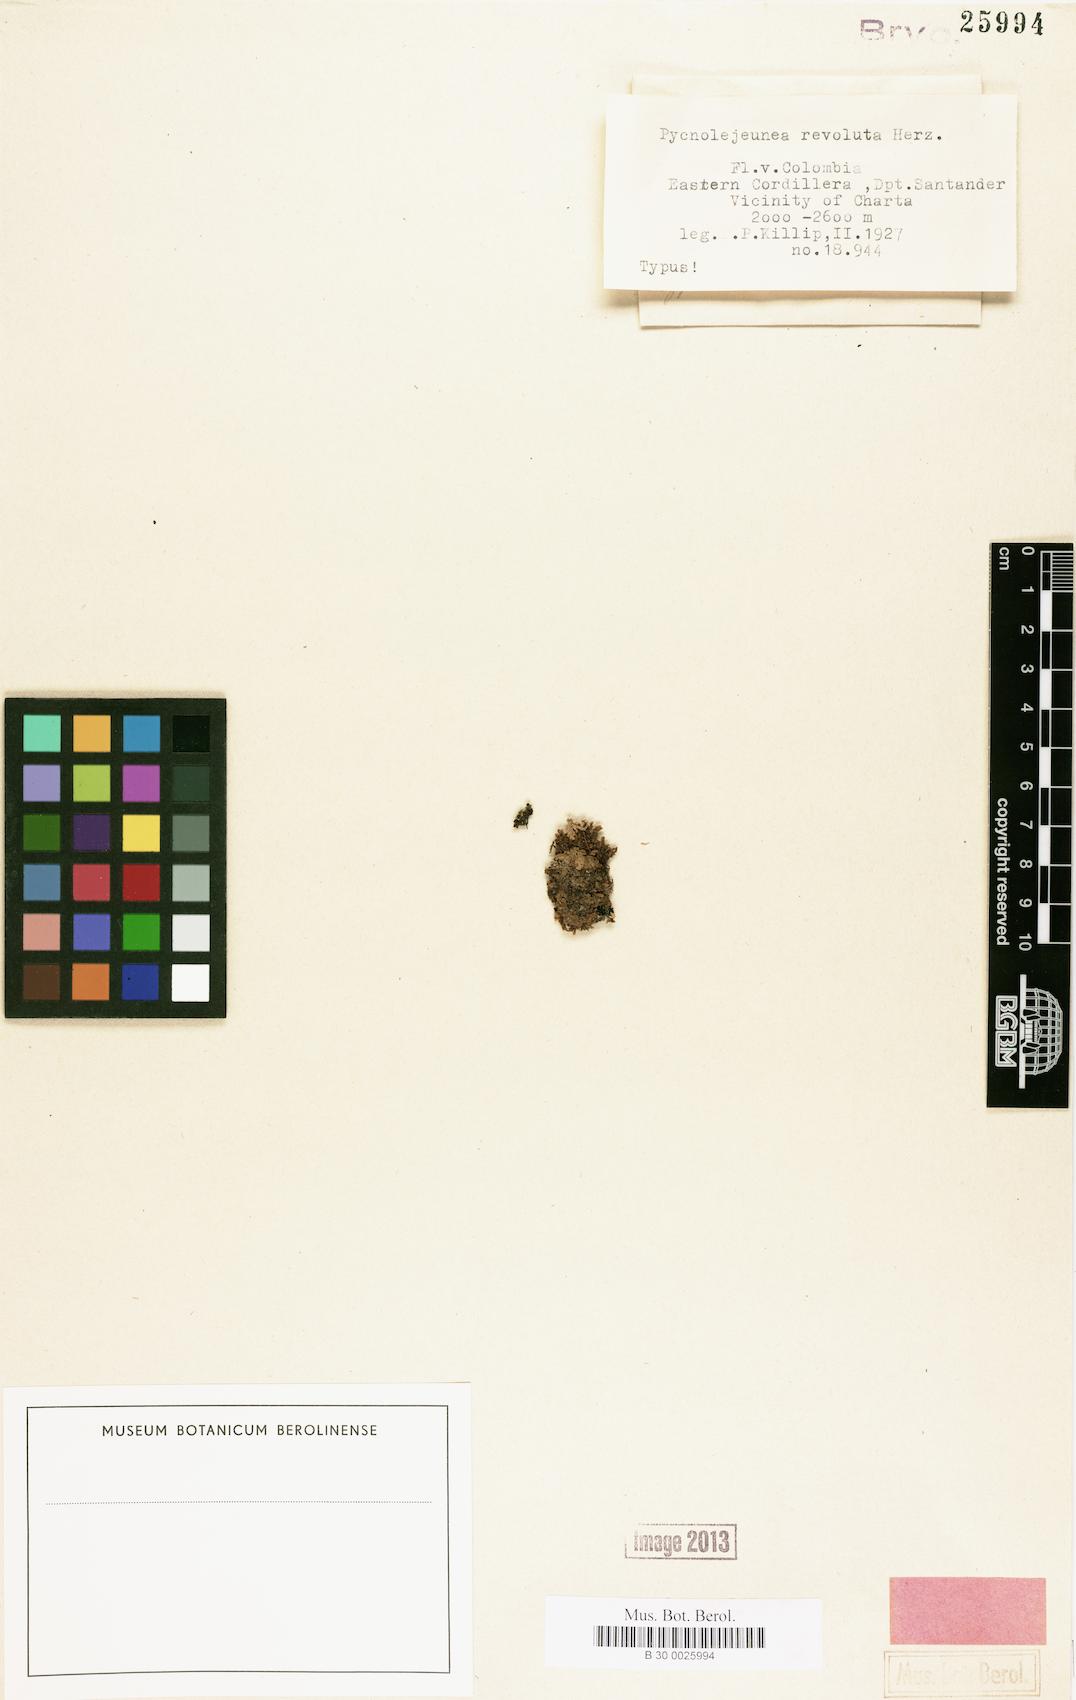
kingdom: Plantae
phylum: Marchantiophyta
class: Jungermanniopsida
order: Porellales
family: Lejeuneaceae
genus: Cheilolejeunea
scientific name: Cheilolejeunea revoluta
